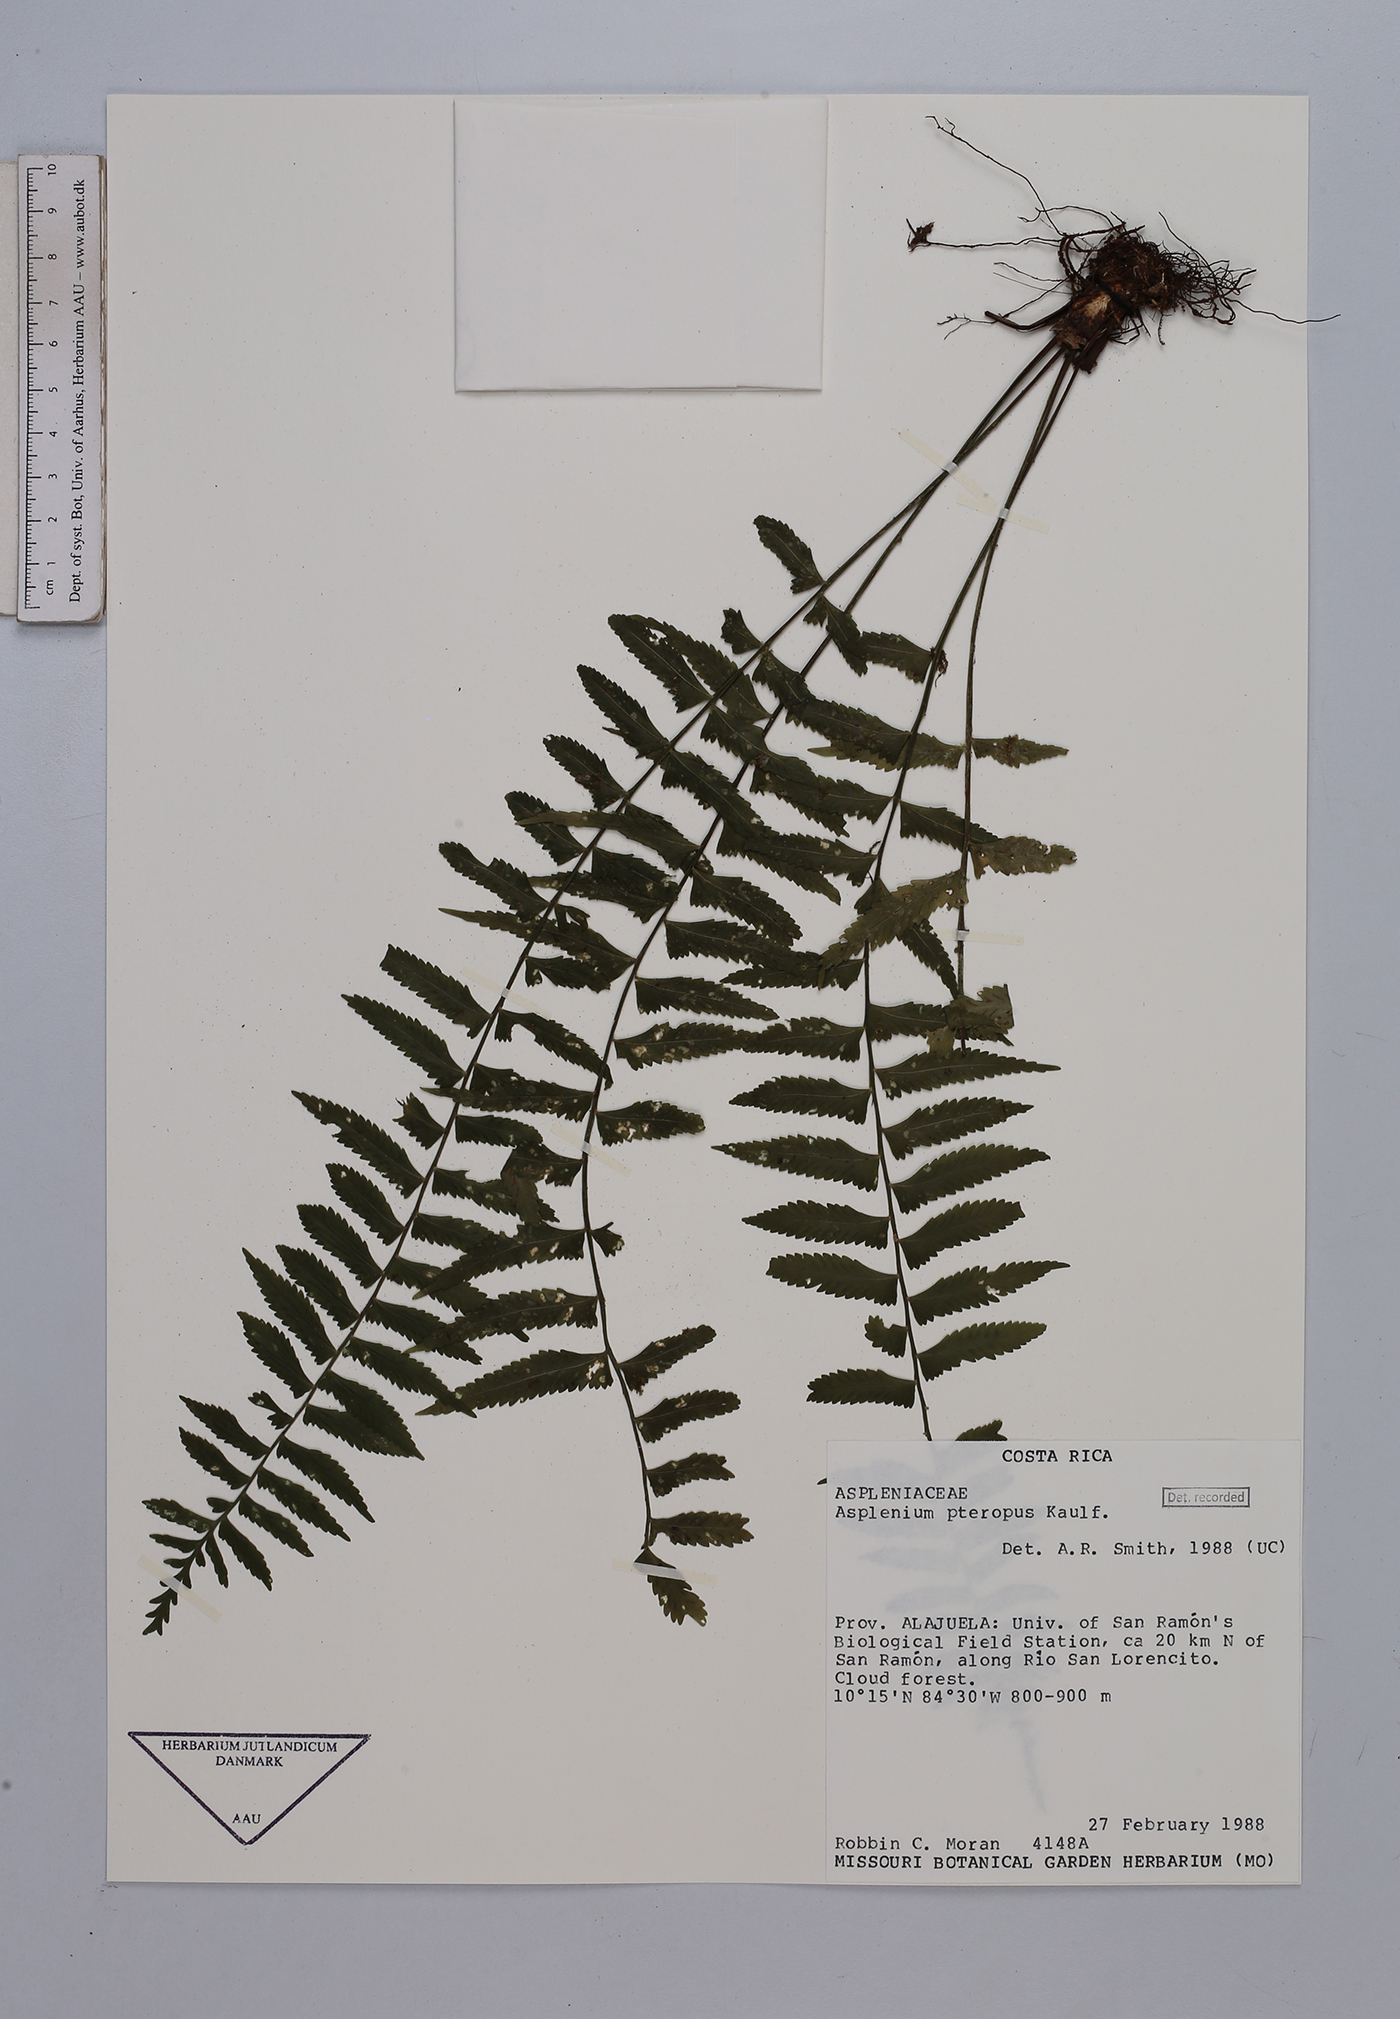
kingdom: Plantae
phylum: Tracheophyta
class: Polypodiopsida
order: Polypodiales
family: Aspleniaceae
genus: Asplenium
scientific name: Asplenium pteropus
